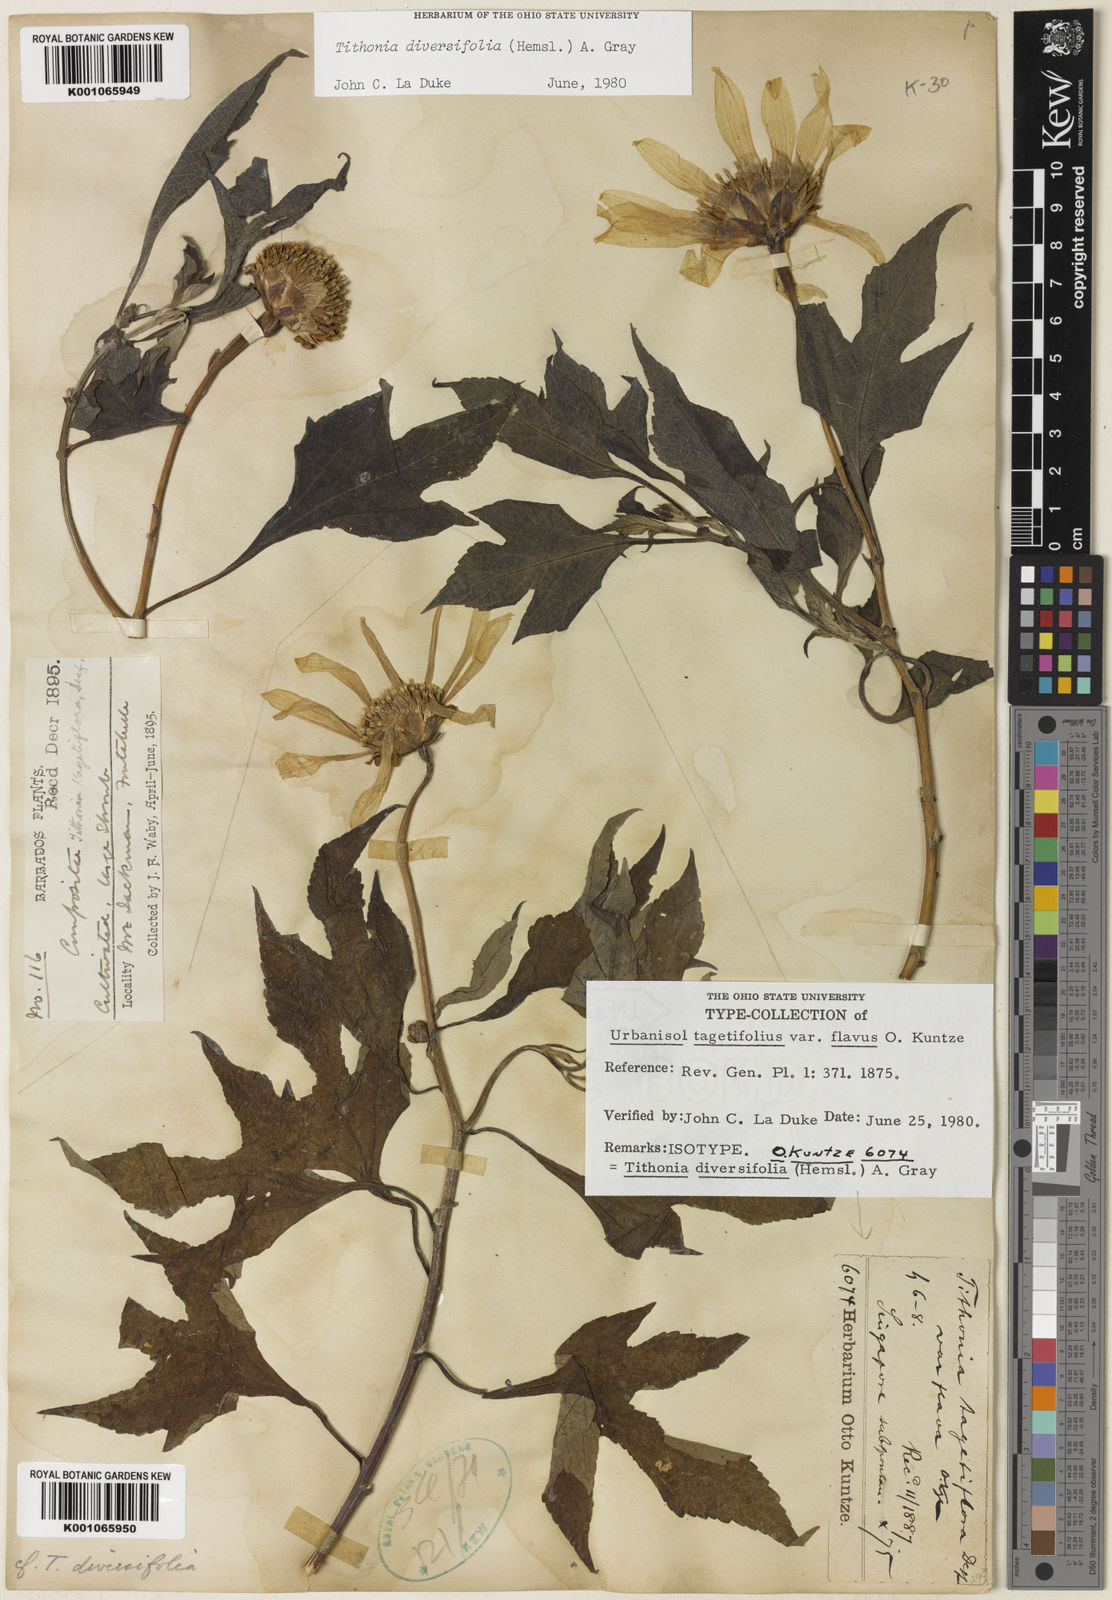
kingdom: Plantae
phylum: Tracheophyta
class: Magnoliopsida
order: Asterales
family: Asteraceae
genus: Tithonia
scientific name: Tithonia diversifolia
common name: Tree marigold
